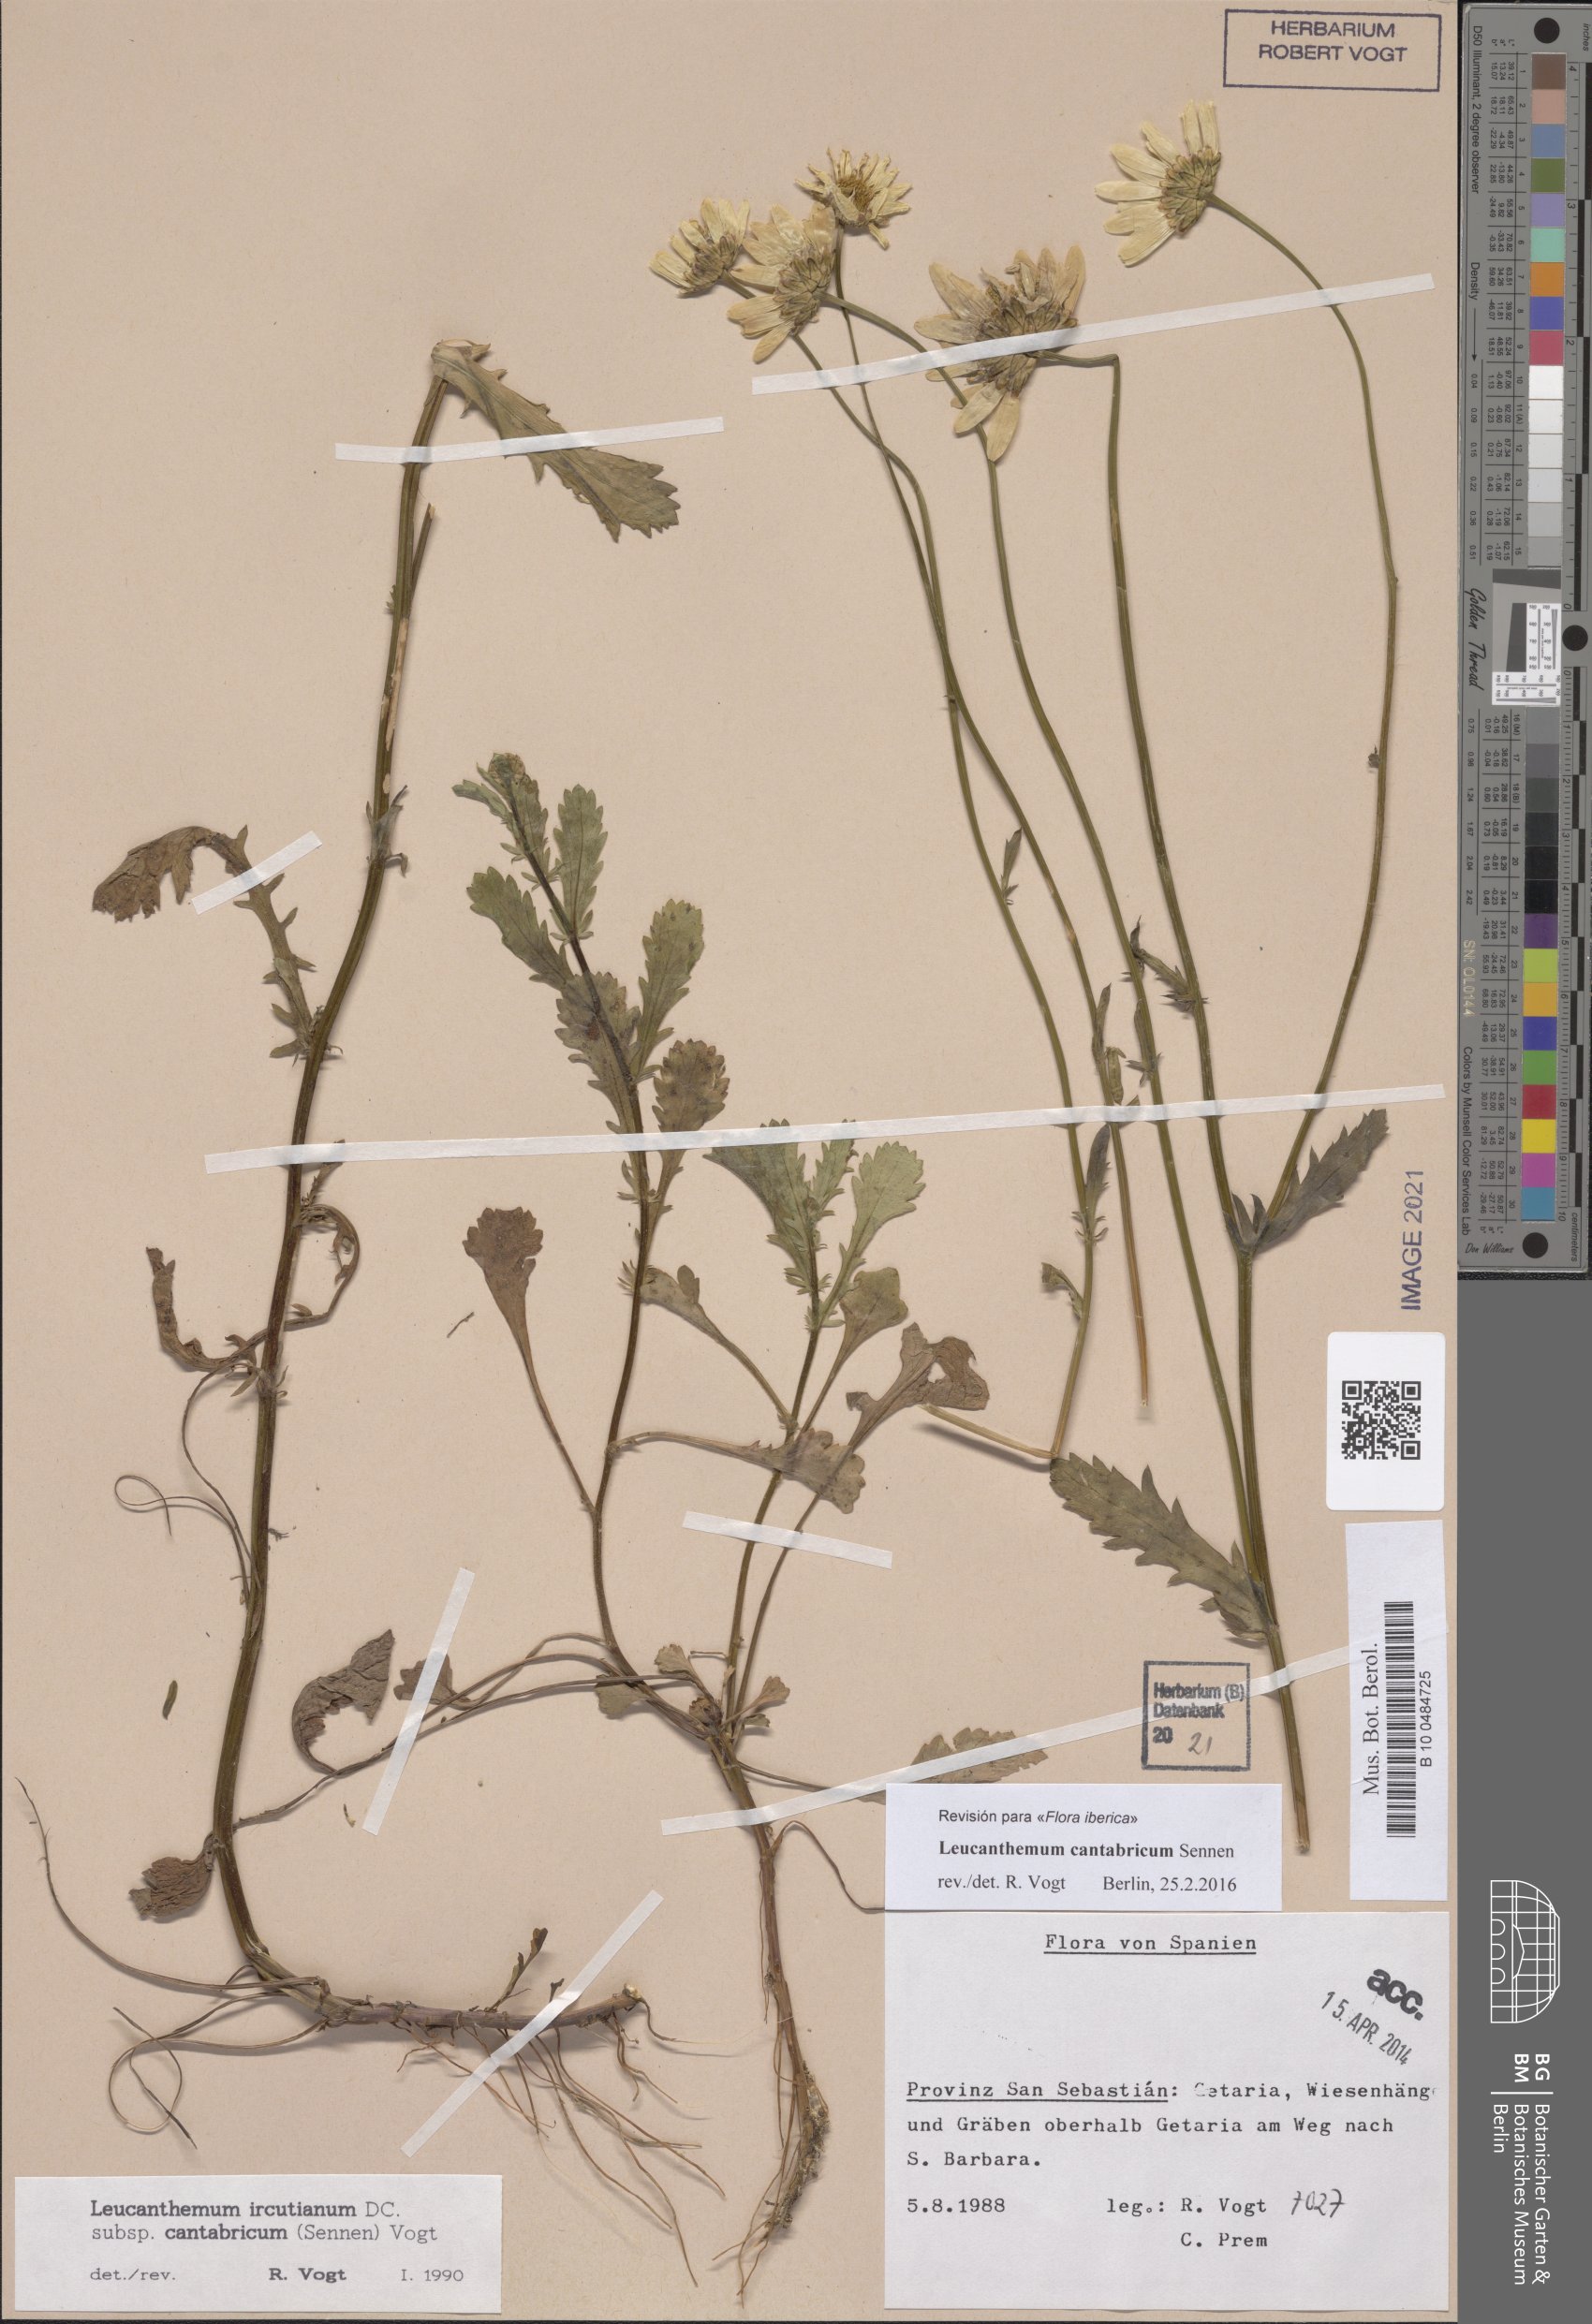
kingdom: Plantae
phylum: Tracheophyta
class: Magnoliopsida
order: Asterales
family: Asteraceae
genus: Leucanthemum
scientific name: Leucanthemum cantabricum
